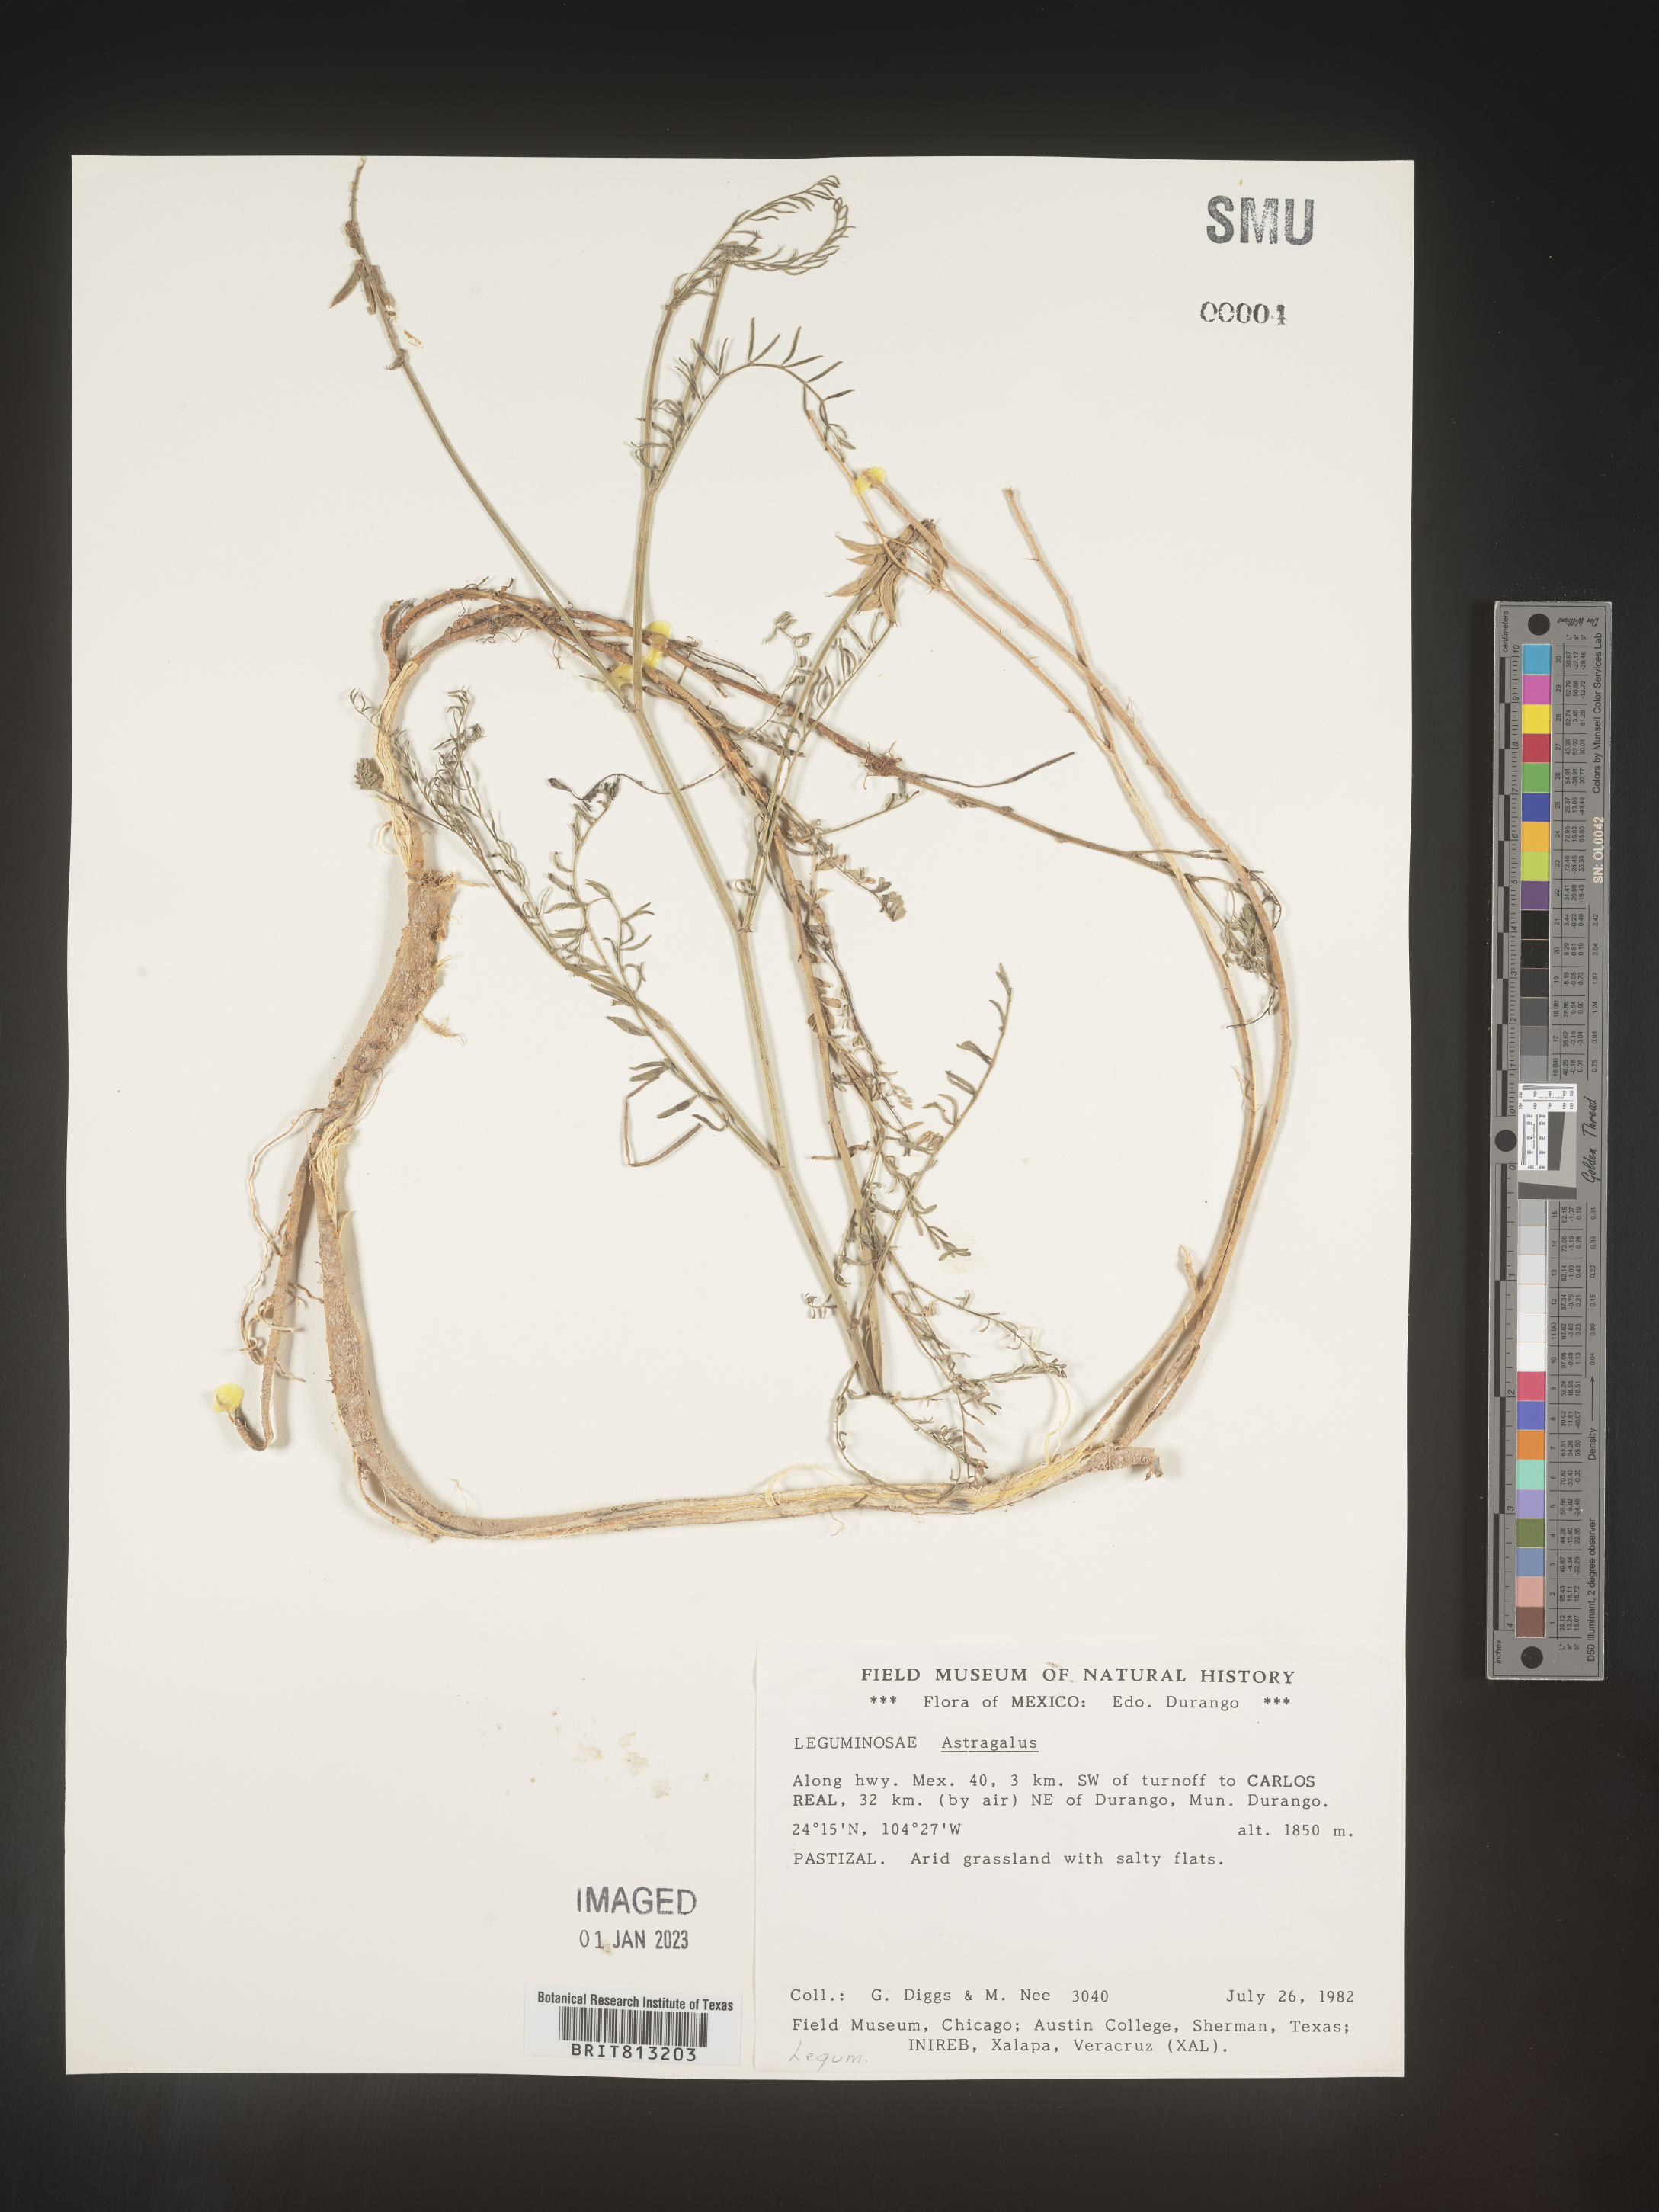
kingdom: Plantae
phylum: Tracheophyta
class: Magnoliopsida
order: Fabales
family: Fabaceae
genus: Astragalus
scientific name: Astragalus
